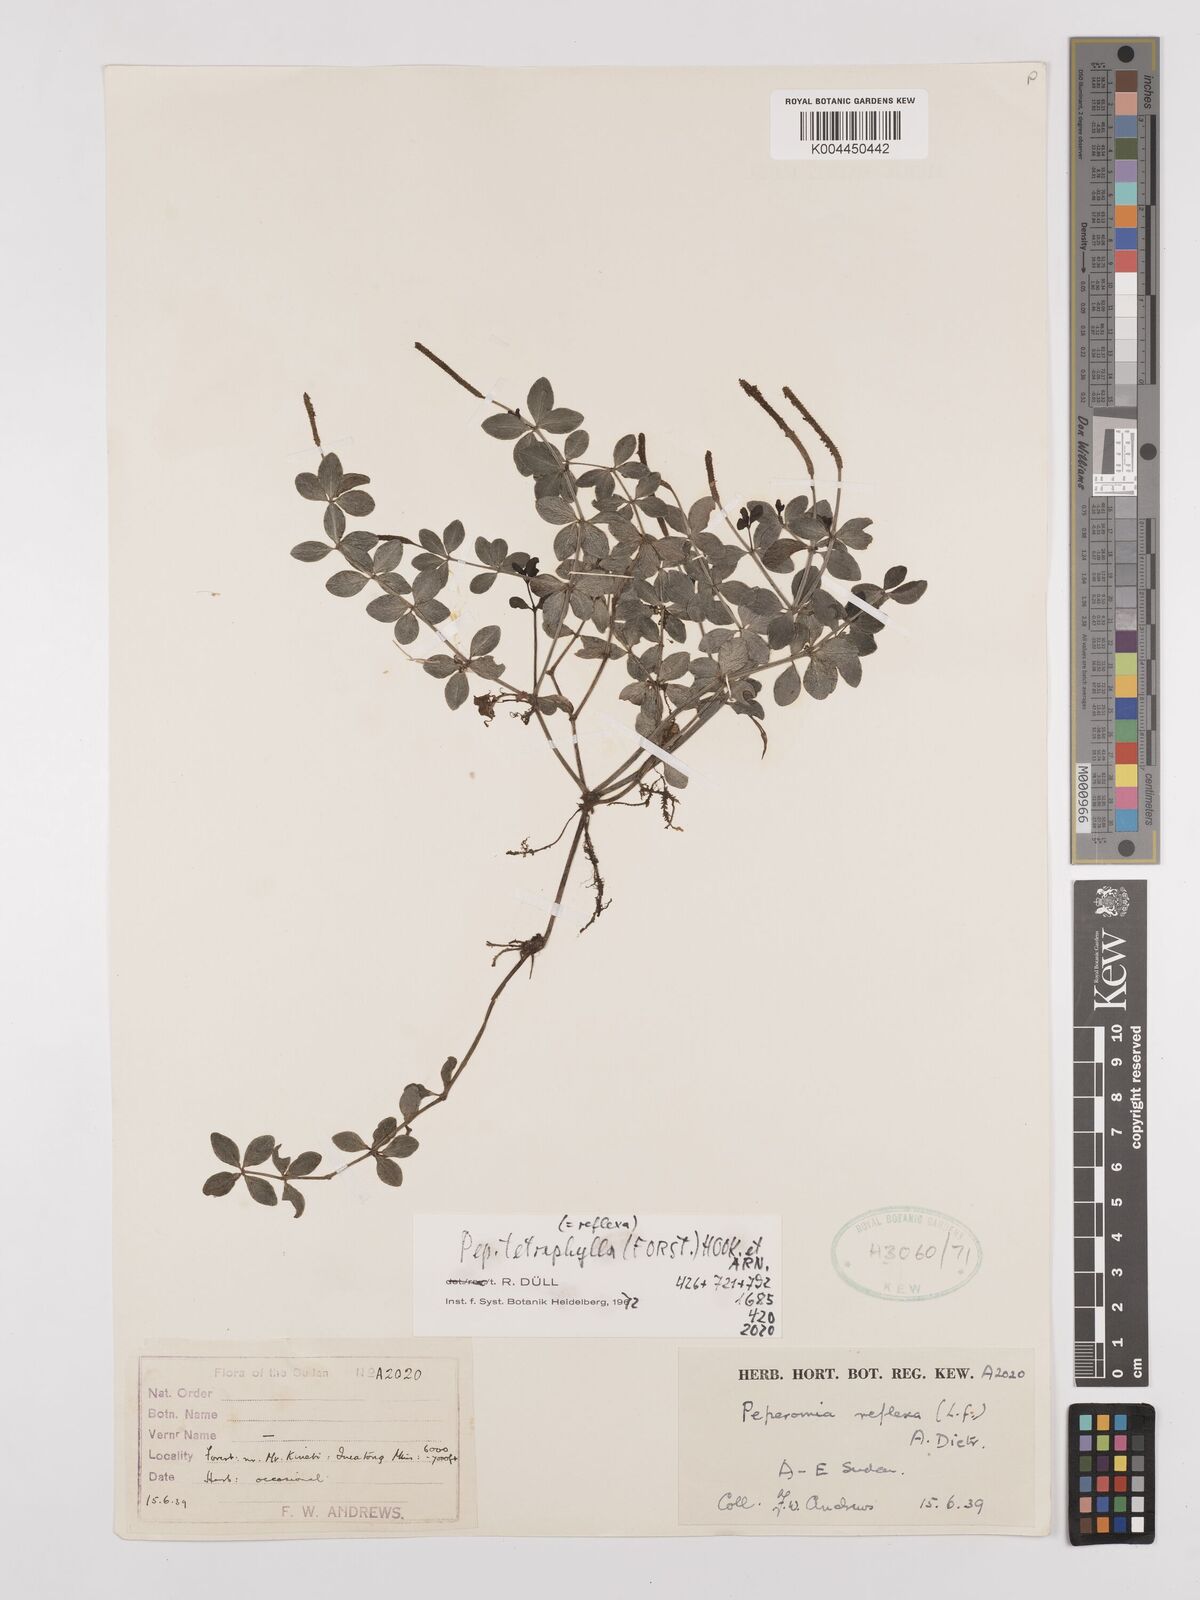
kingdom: Plantae
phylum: Tracheophyta
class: Magnoliopsida
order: Piperales
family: Piperaceae
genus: Peperomia
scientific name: Peperomia tetraphylla
